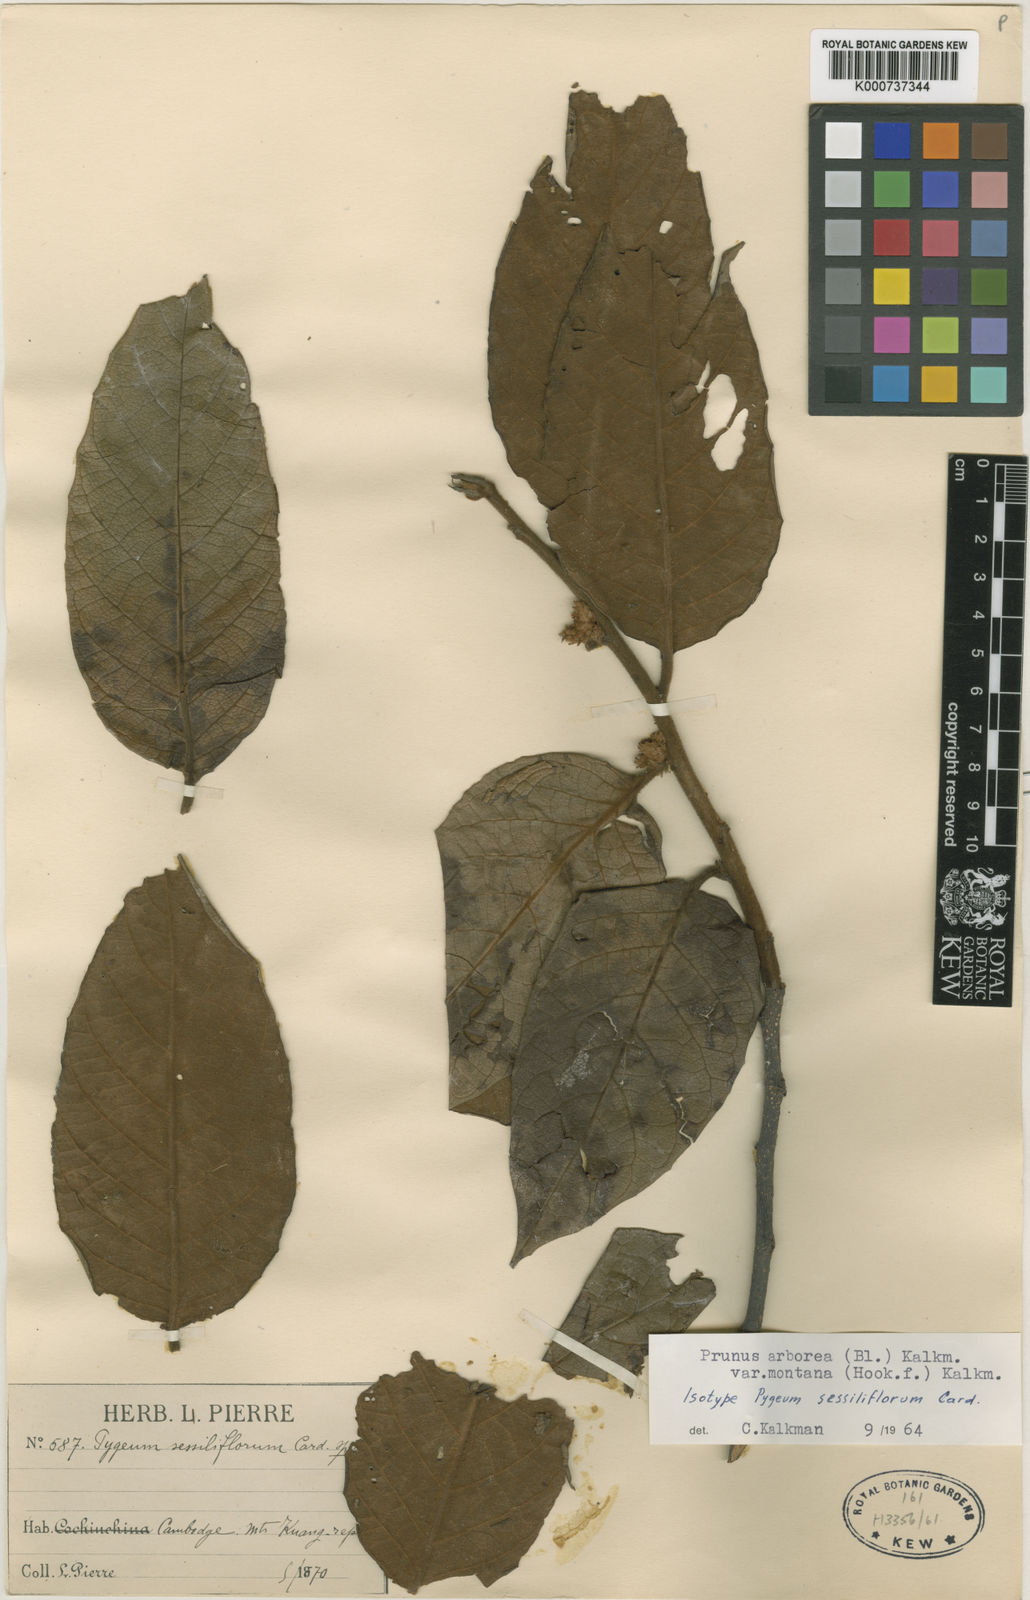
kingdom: Plantae
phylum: Tracheophyta
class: Magnoliopsida
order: Rosales
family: Rosaceae
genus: Prunus
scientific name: Prunus arborea
